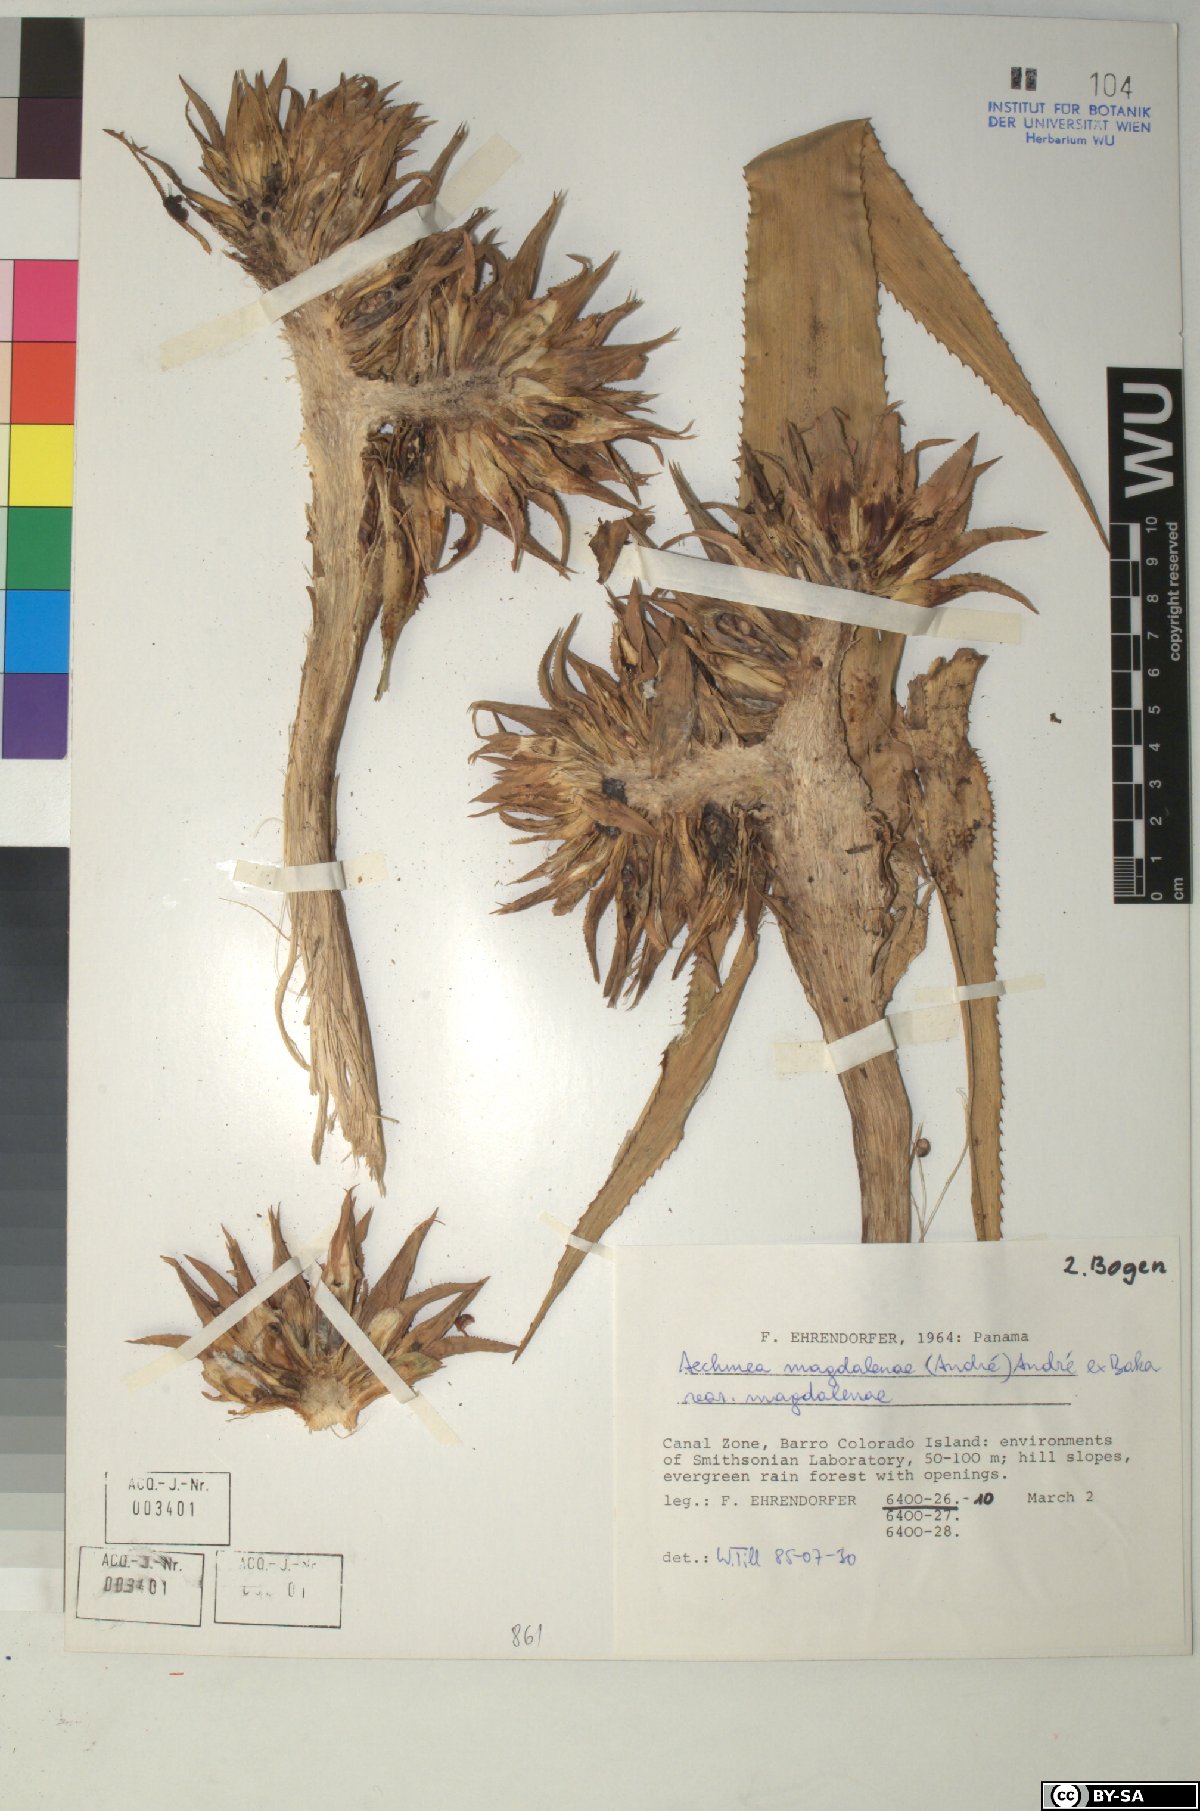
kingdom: Plantae
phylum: Tracheophyta
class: Liliopsida
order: Poales
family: Bromeliaceae
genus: Aechmea
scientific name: Aechmea
